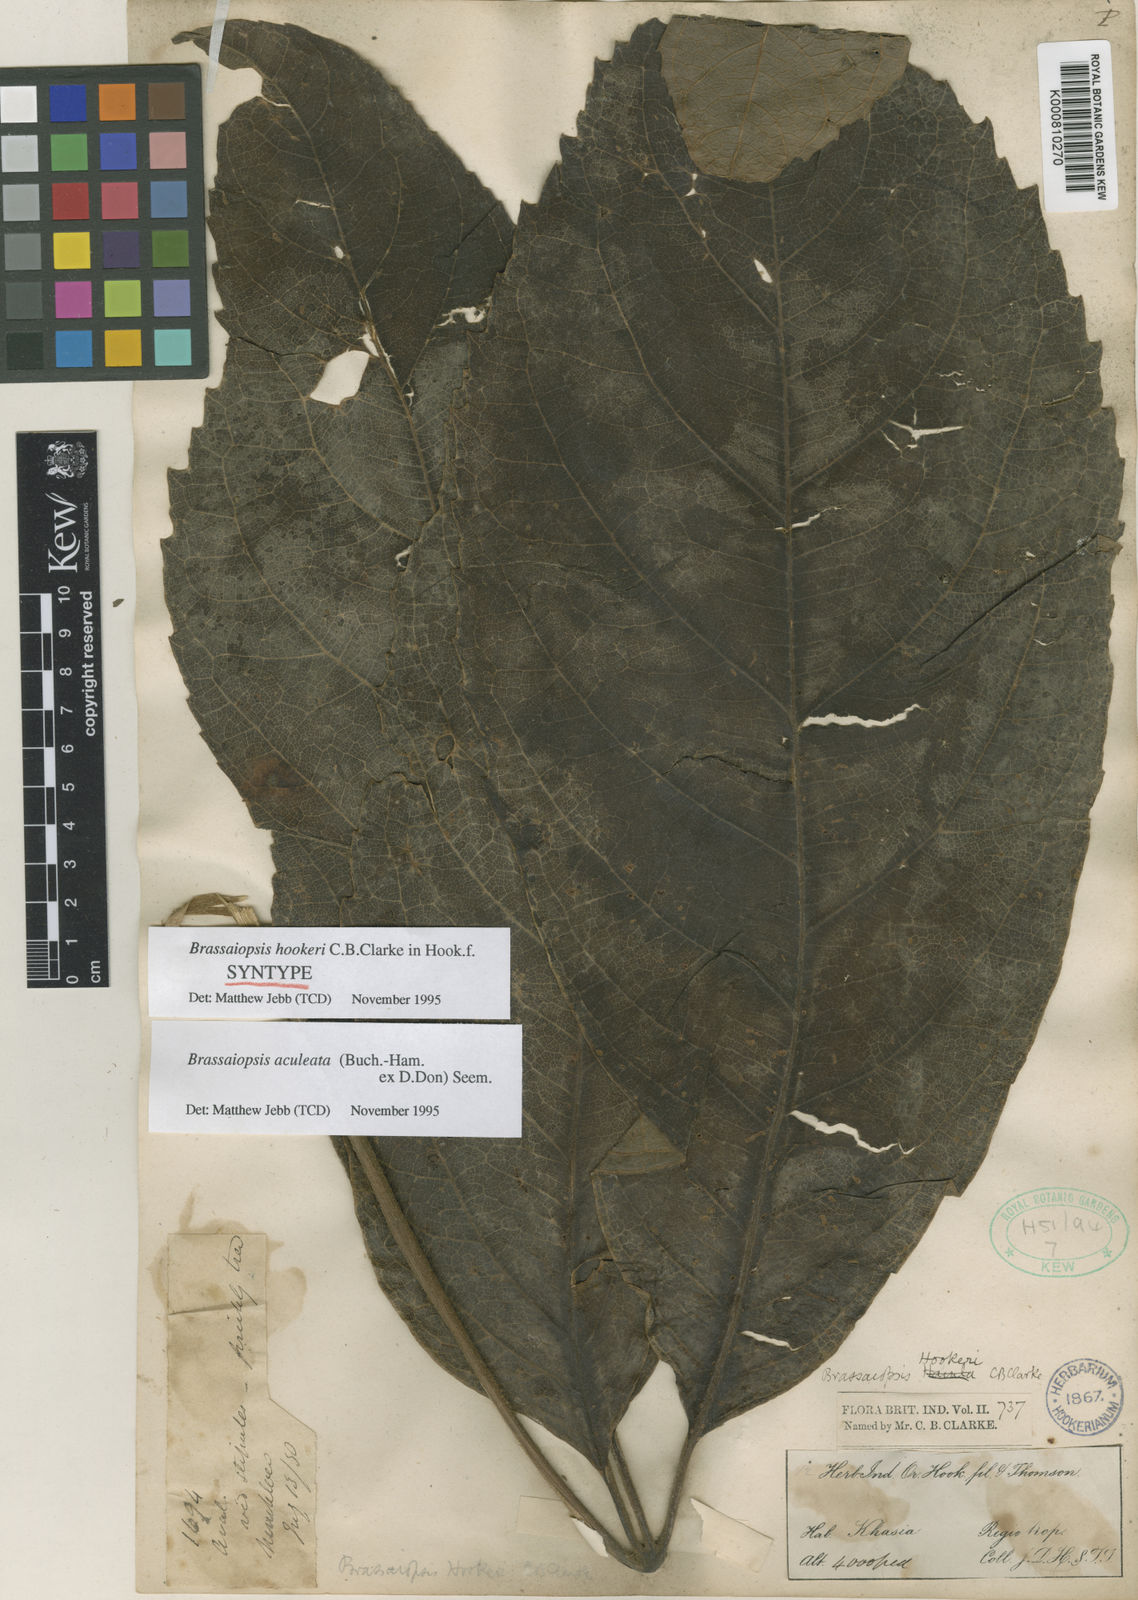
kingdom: Plantae
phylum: Tracheophyta
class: Magnoliopsida
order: Apiales
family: Araliaceae
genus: Brassaiopsis
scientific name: Brassaiopsis aculeata
